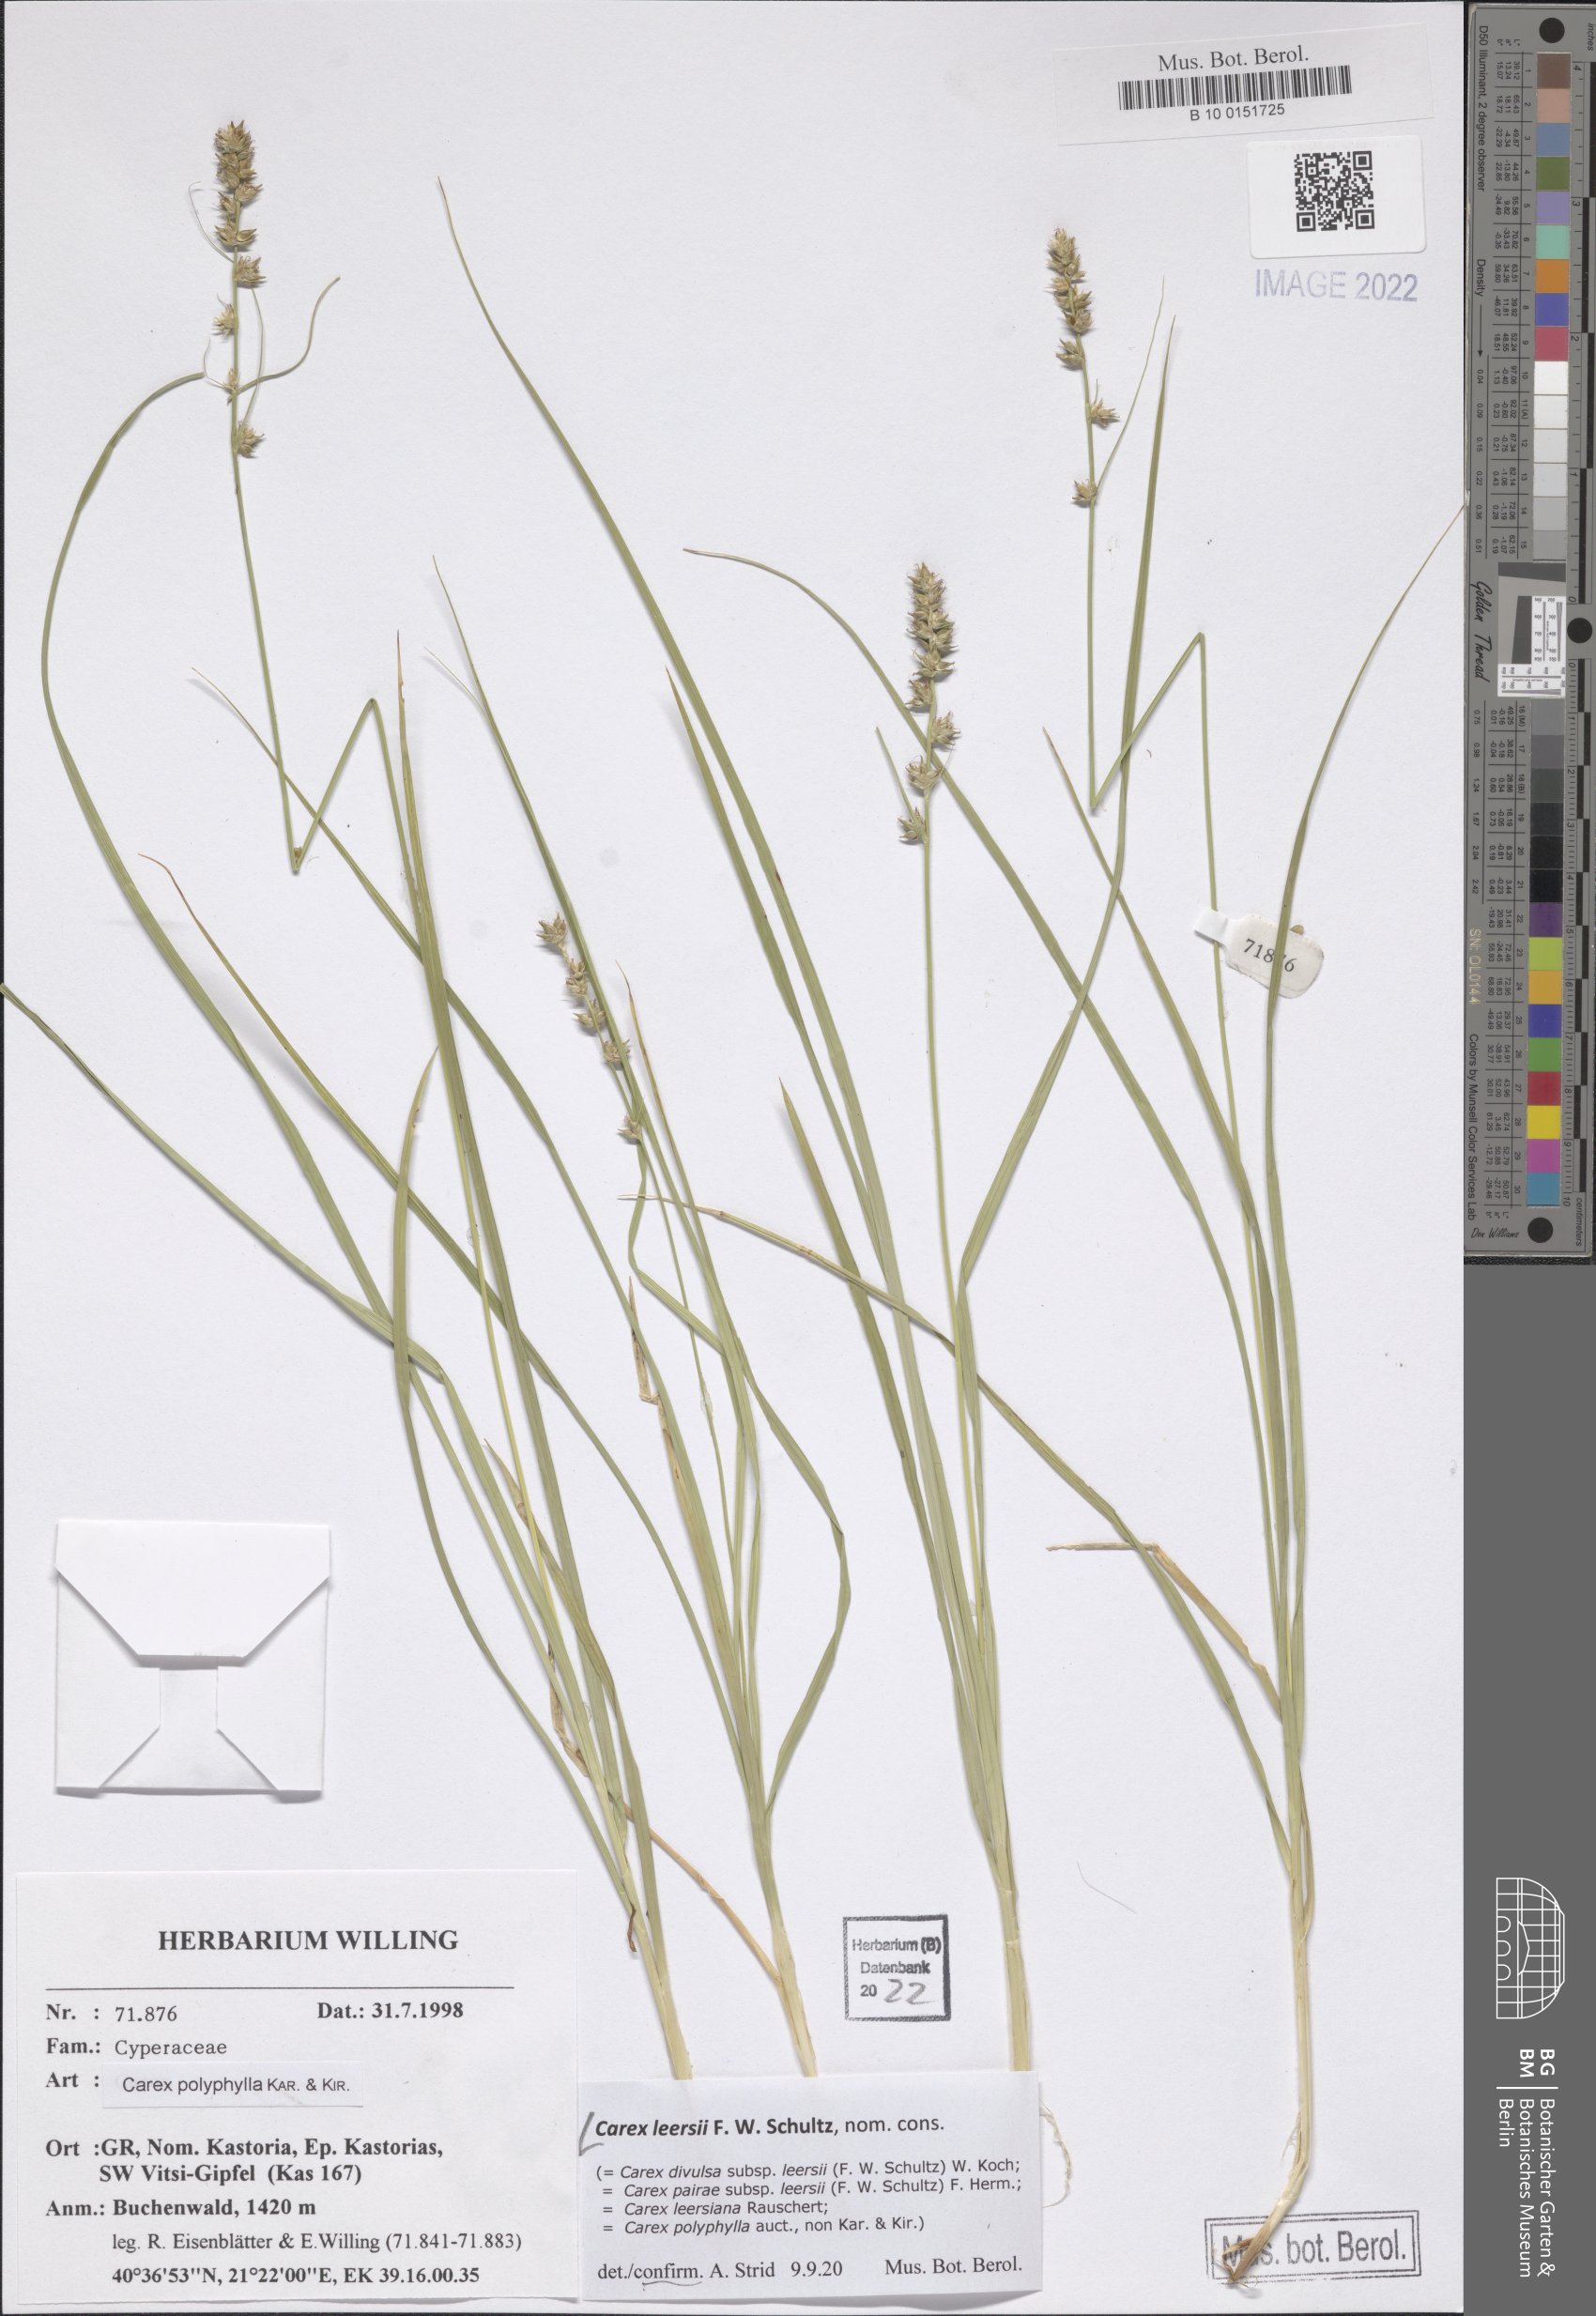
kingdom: Plantae
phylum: Tracheophyta
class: Liliopsida
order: Poales
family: Cyperaceae
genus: Carex
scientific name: Carex leersii
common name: Leers' sedge
